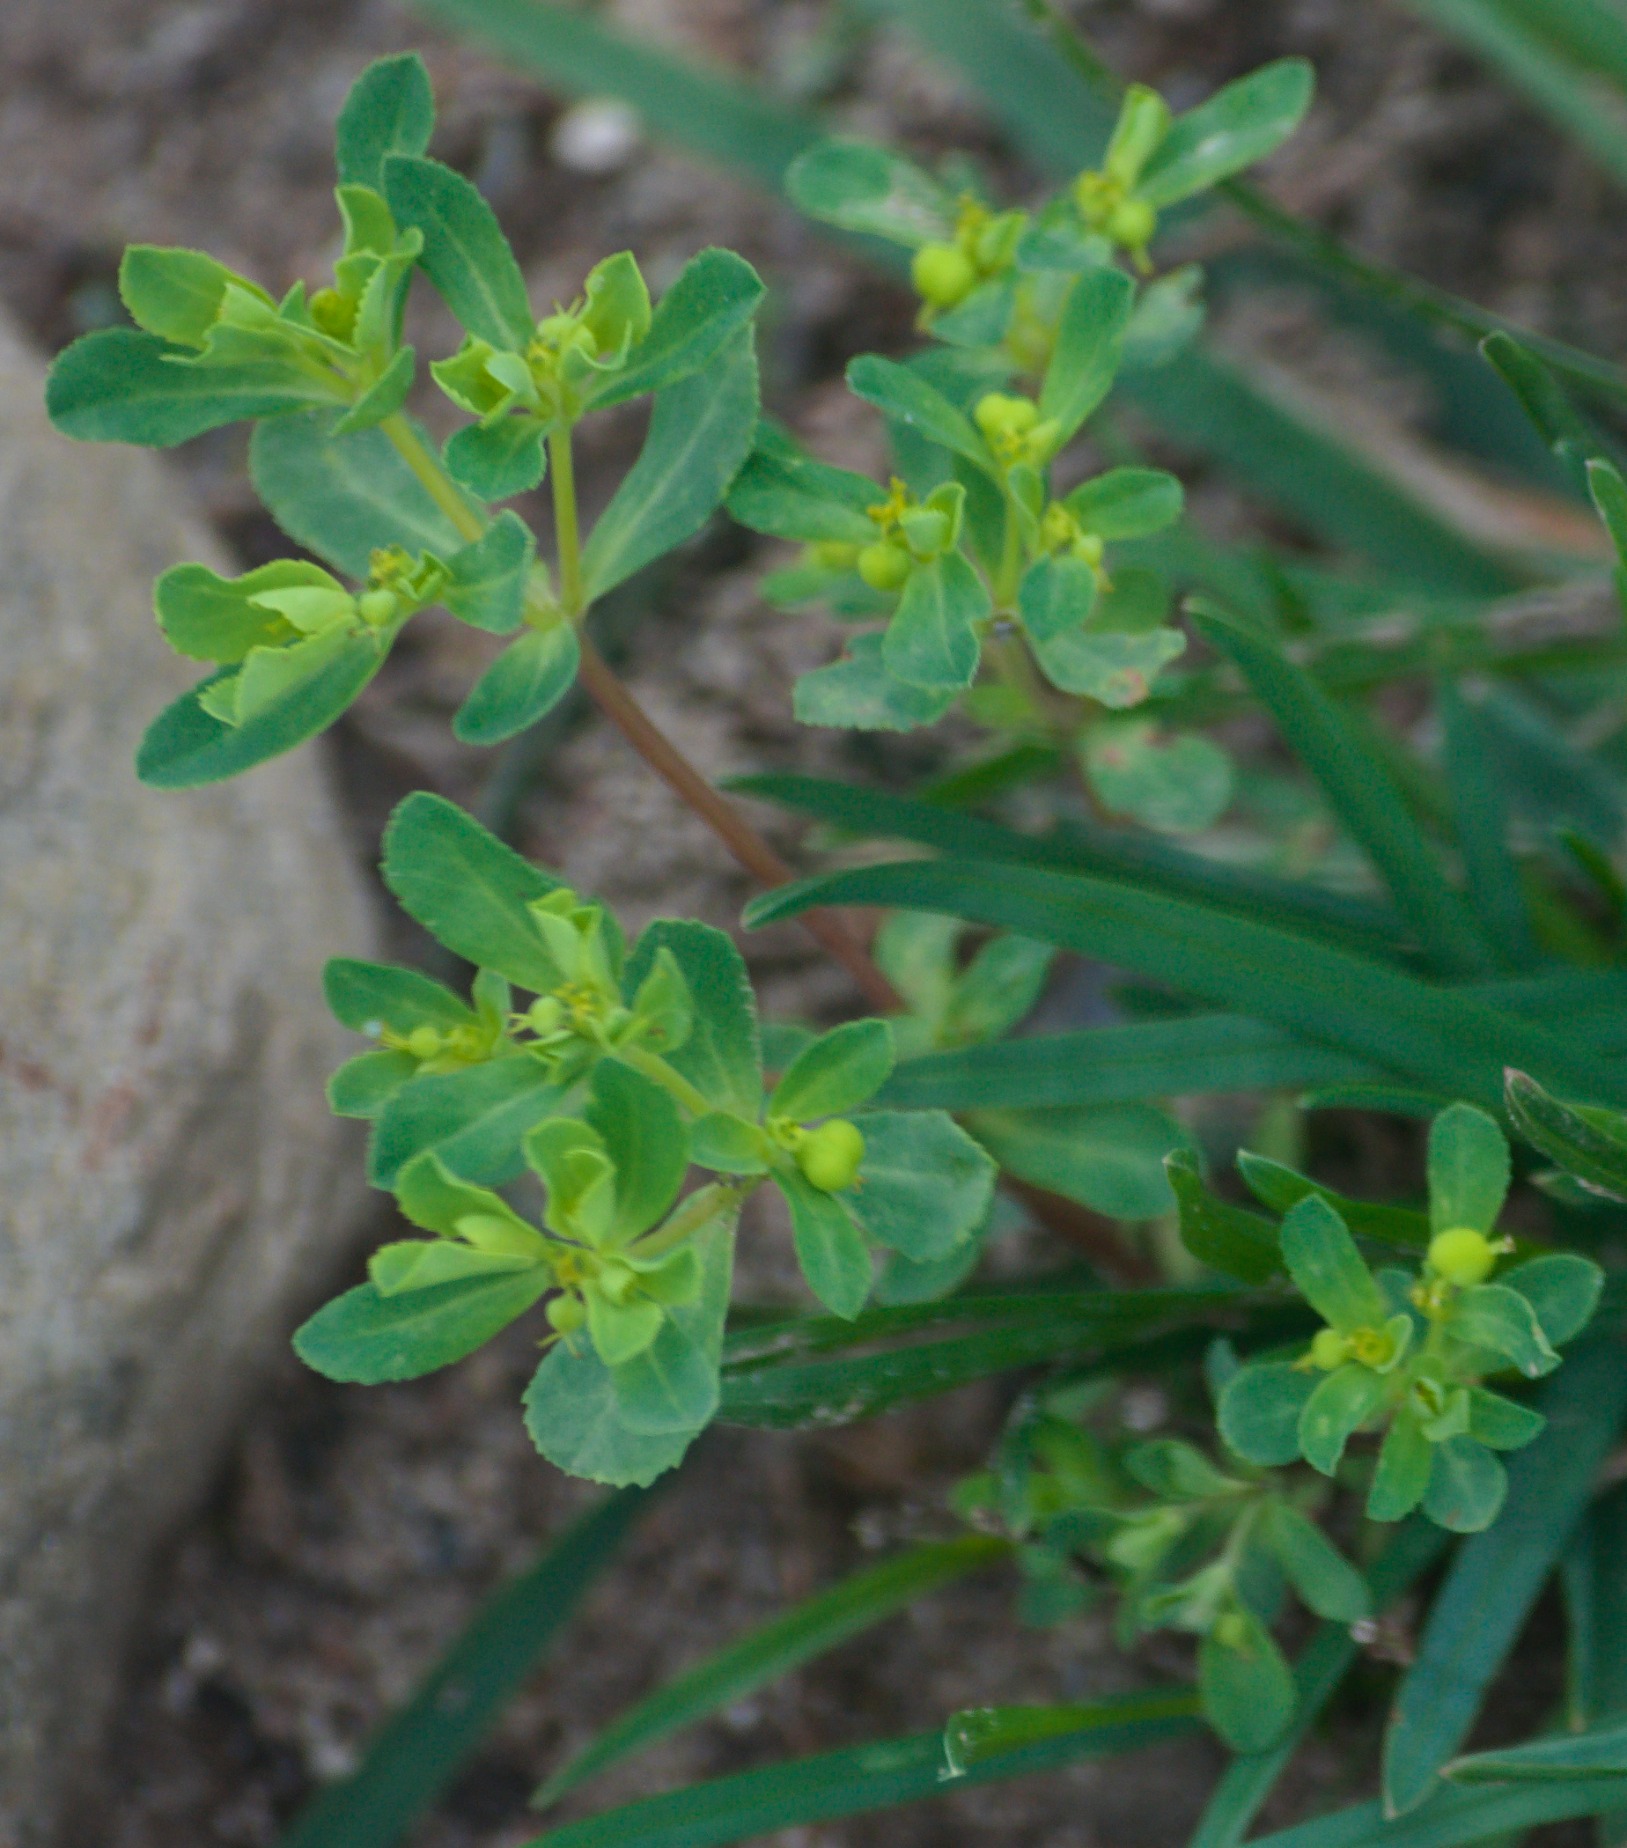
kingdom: Plantae
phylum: Tracheophyta
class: Magnoliopsida
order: Malpighiales
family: Euphorbiaceae
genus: Euphorbia
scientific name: Euphorbia helioscopia
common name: Skærm-vortemælk
